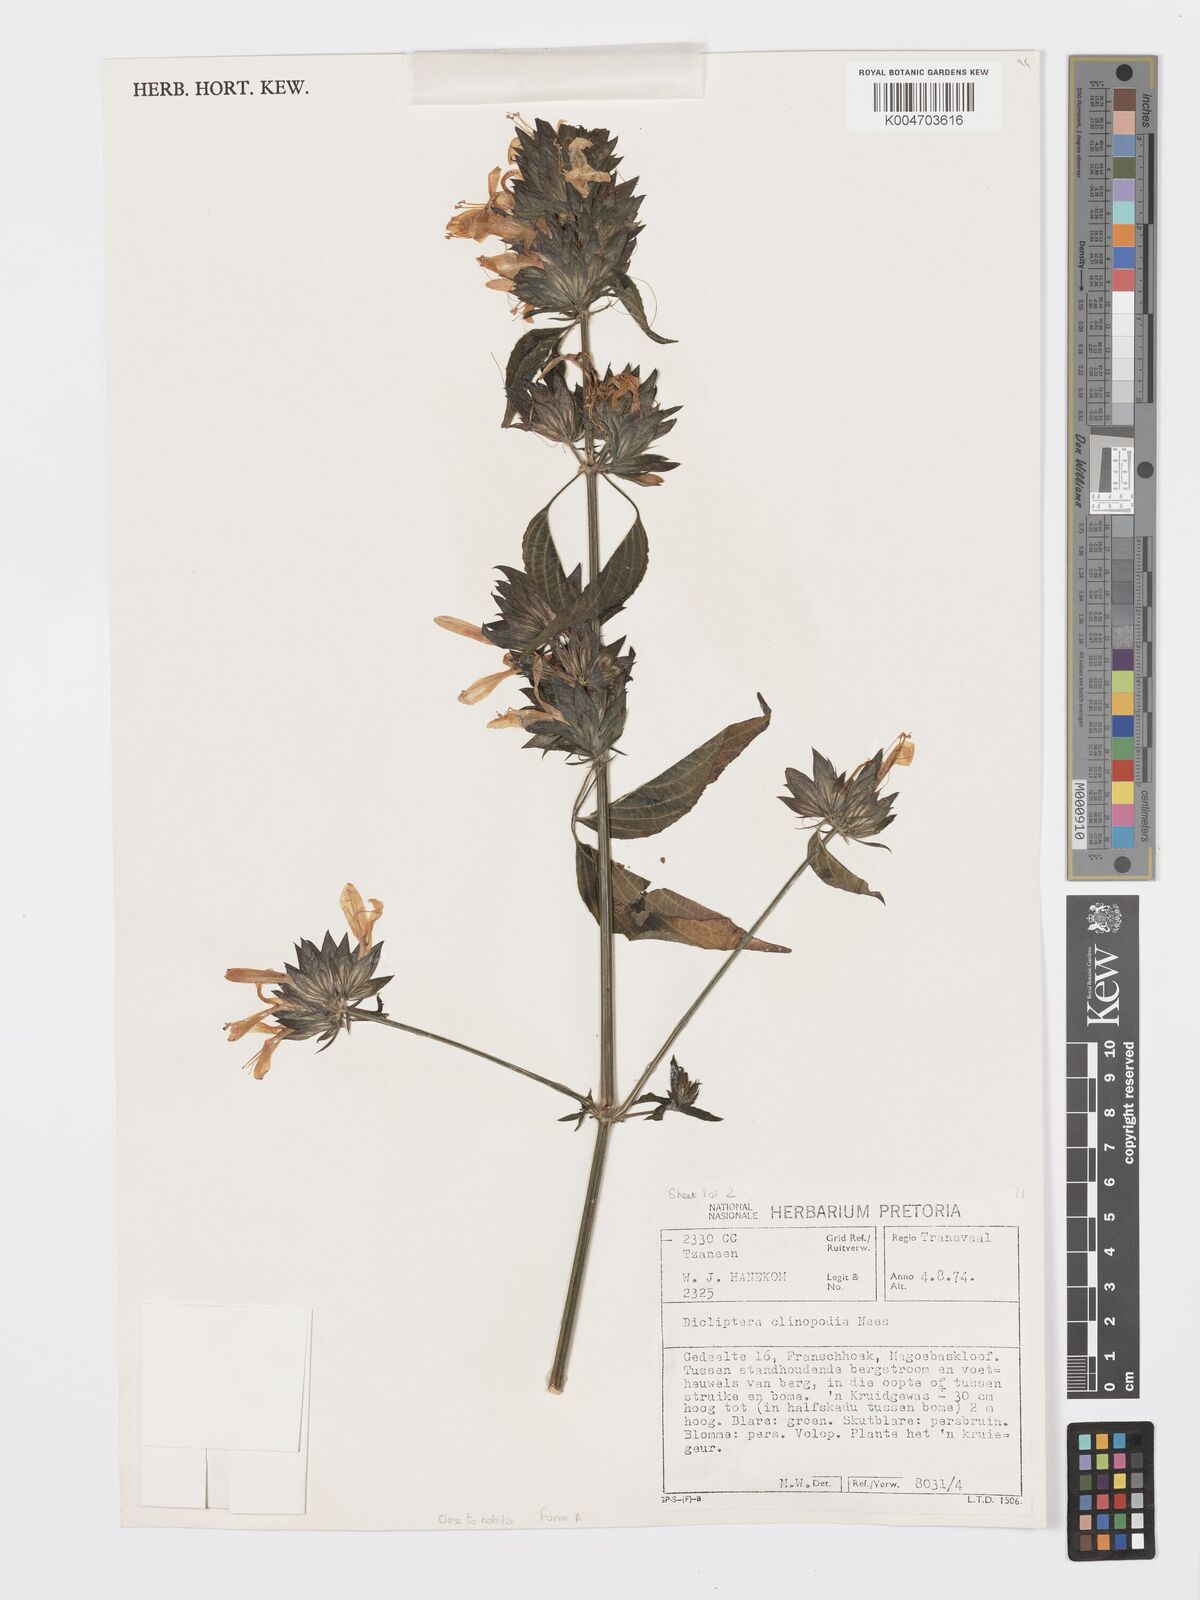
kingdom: Plantae
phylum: Tracheophyta
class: Magnoliopsida
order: Lamiales
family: Acanthaceae
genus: Dicliptera
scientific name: Dicliptera clinopodia
